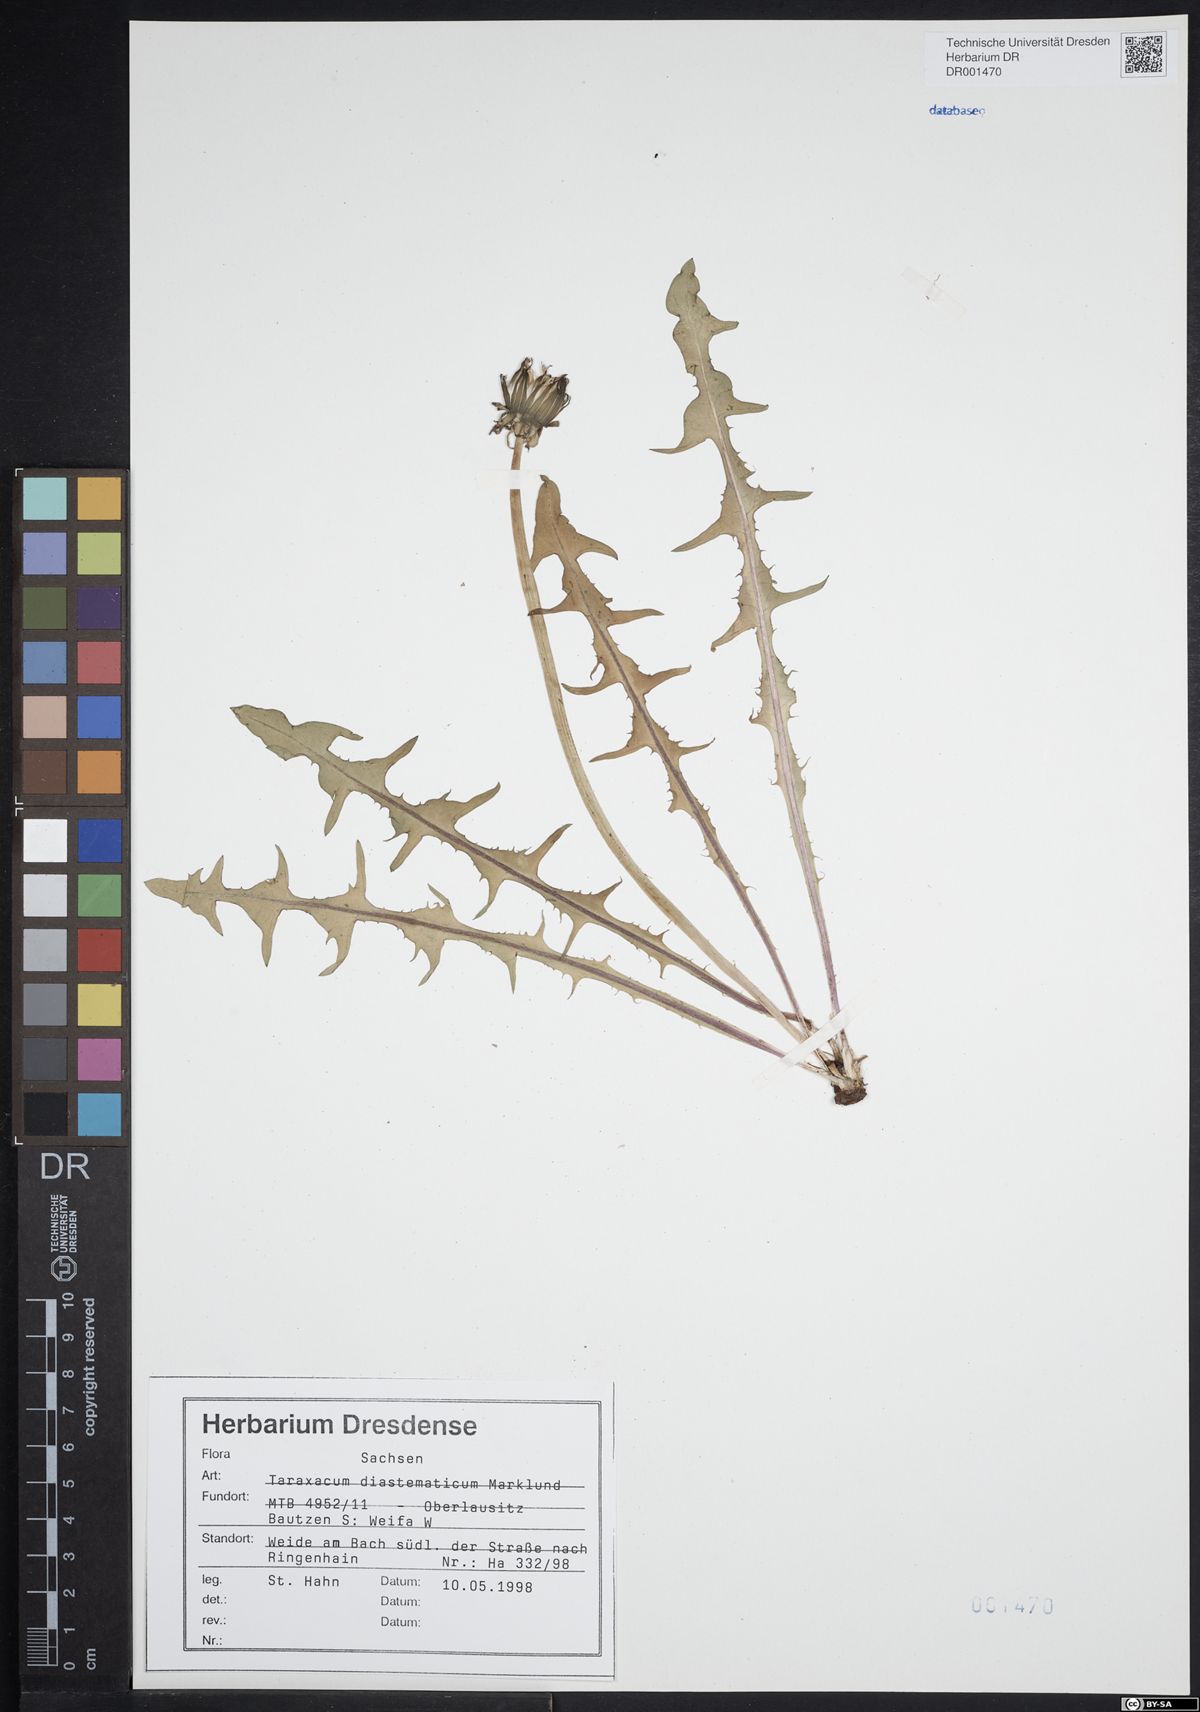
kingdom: Plantae
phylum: Tracheophyta
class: Magnoliopsida
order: Asterales
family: Asteraceae
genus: Taraxacum
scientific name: Taraxacum diastematicum
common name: Bulbous-lobed dandelion
